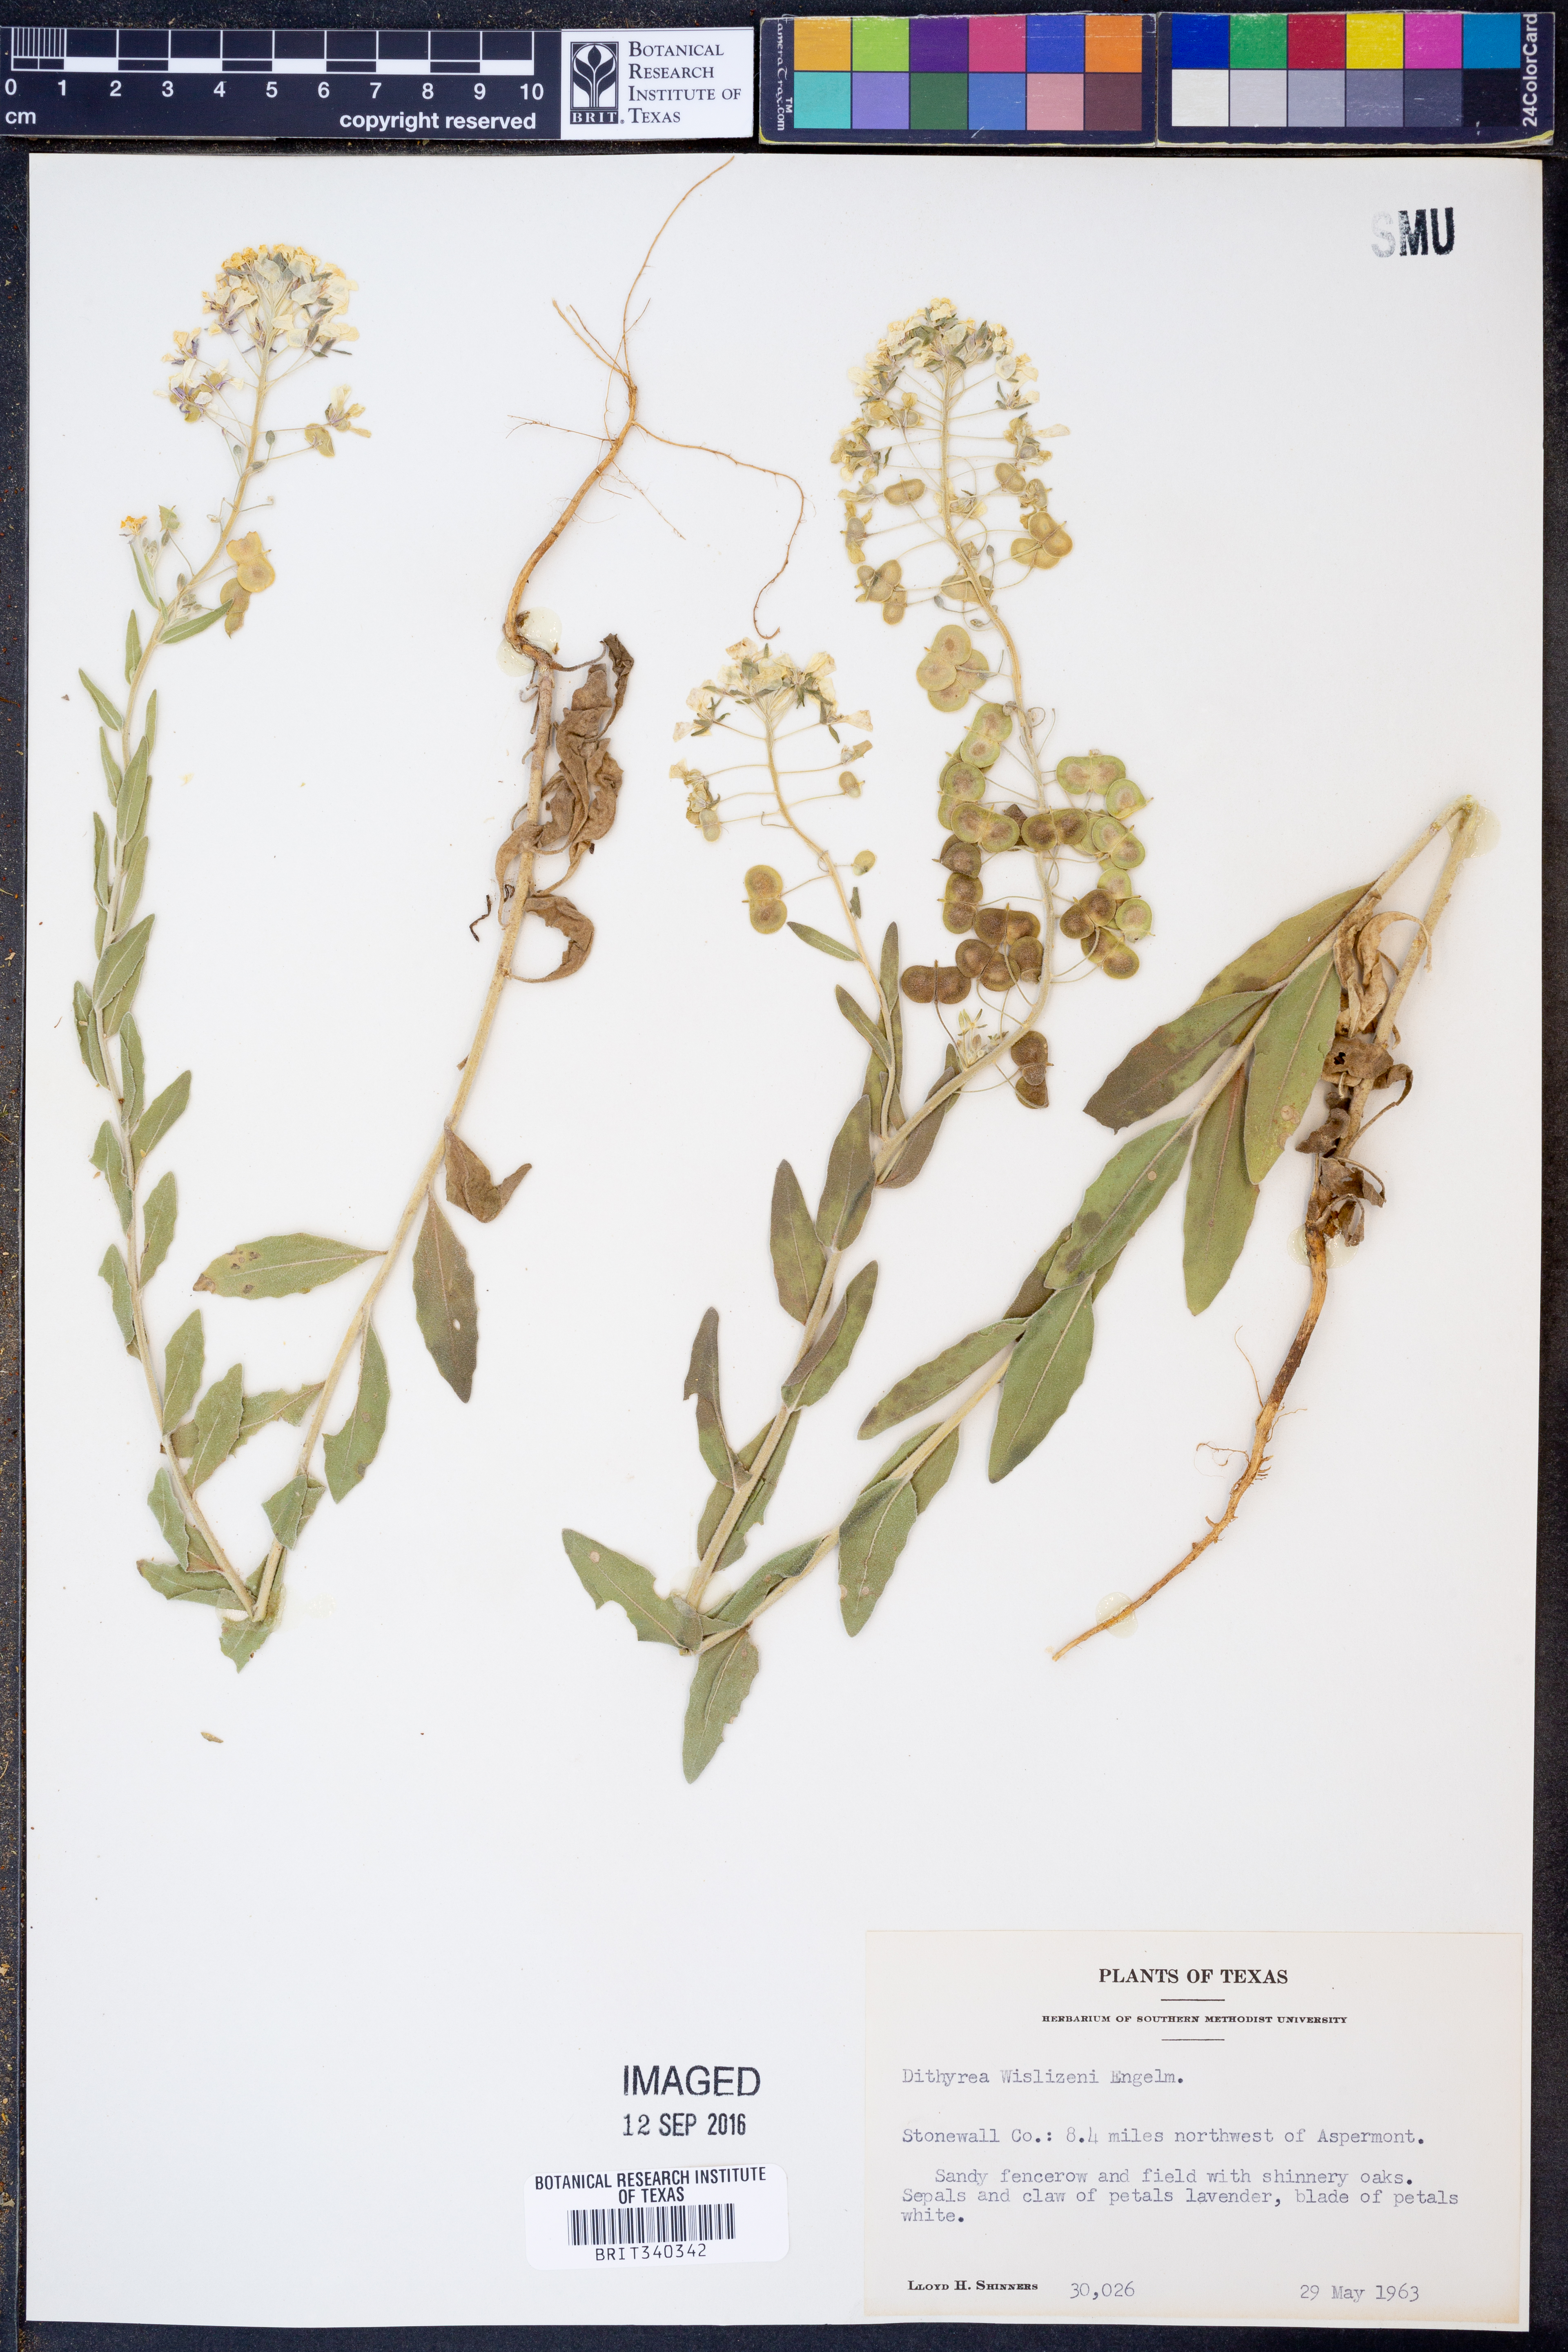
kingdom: Plantae
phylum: Tracheophyta
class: Magnoliopsida
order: Brassicales
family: Brassicaceae
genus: Dimorphocarpa
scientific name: Dimorphocarpa wislizenii
